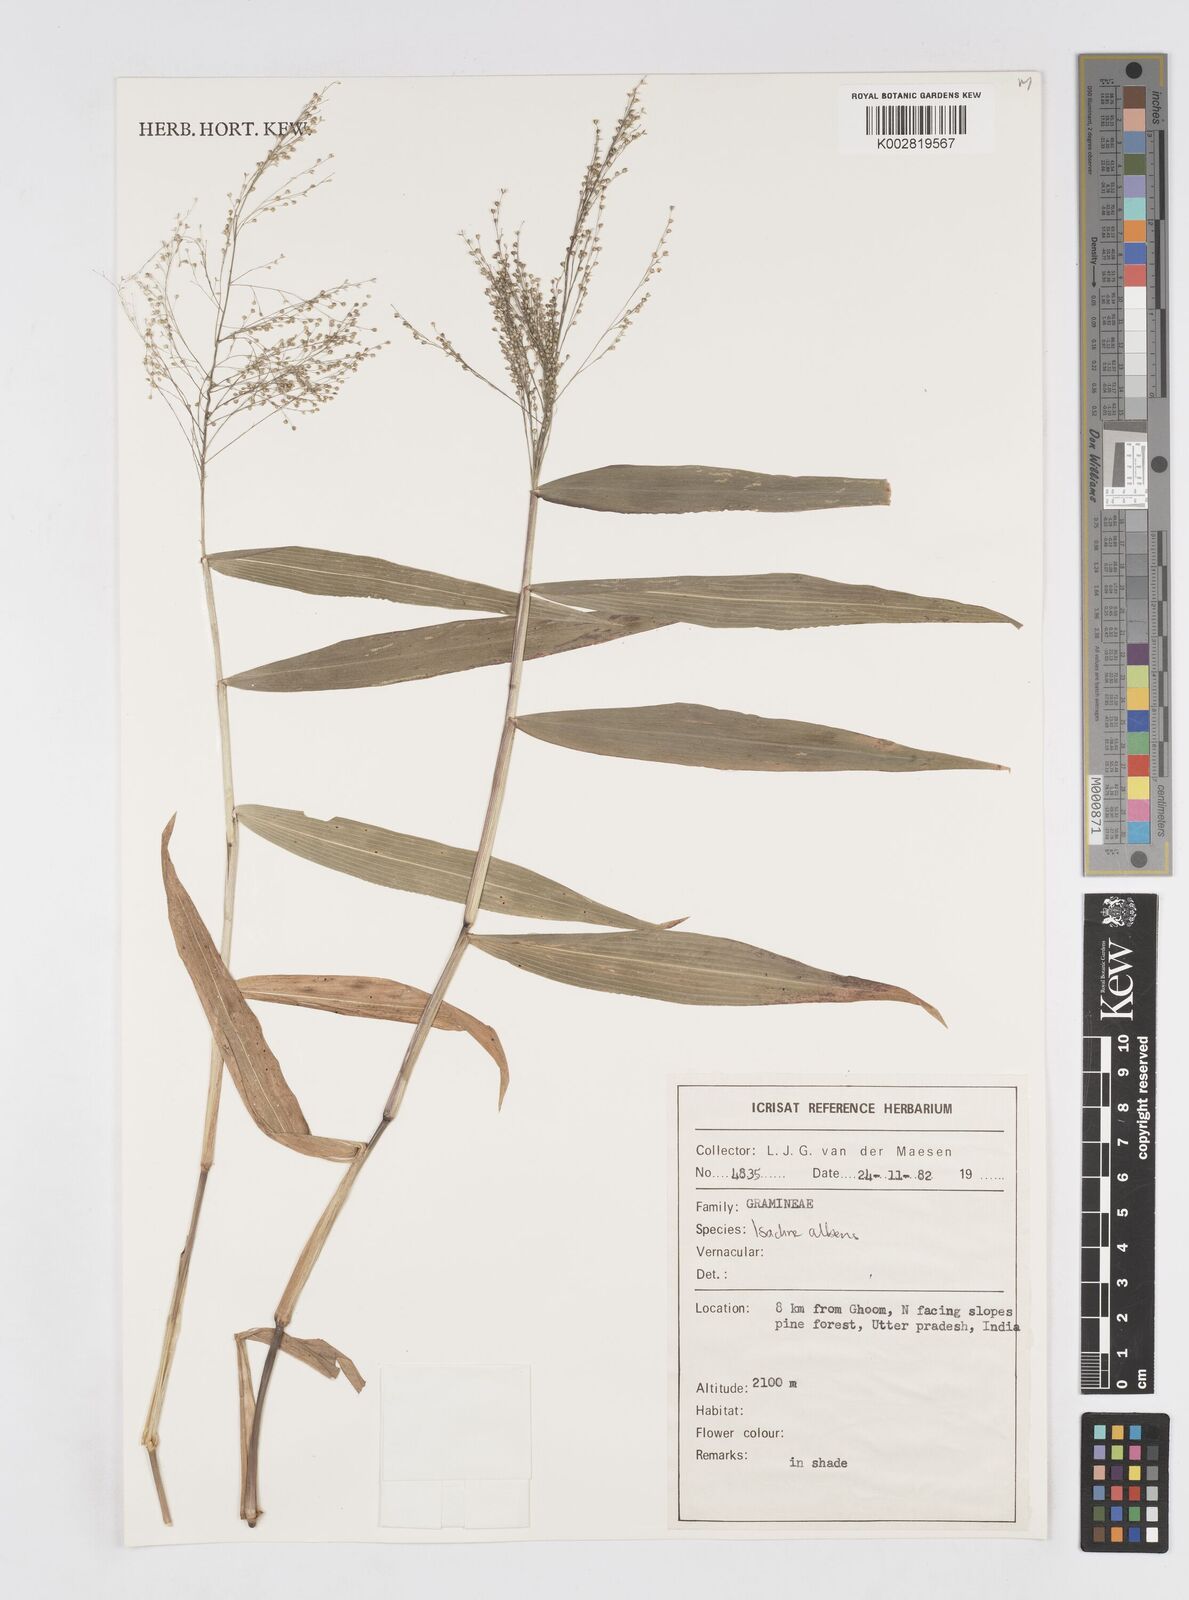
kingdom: Plantae
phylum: Tracheophyta
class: Liliopsida
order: Poales
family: Poaceae
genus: Isachne
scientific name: Isachne albens
